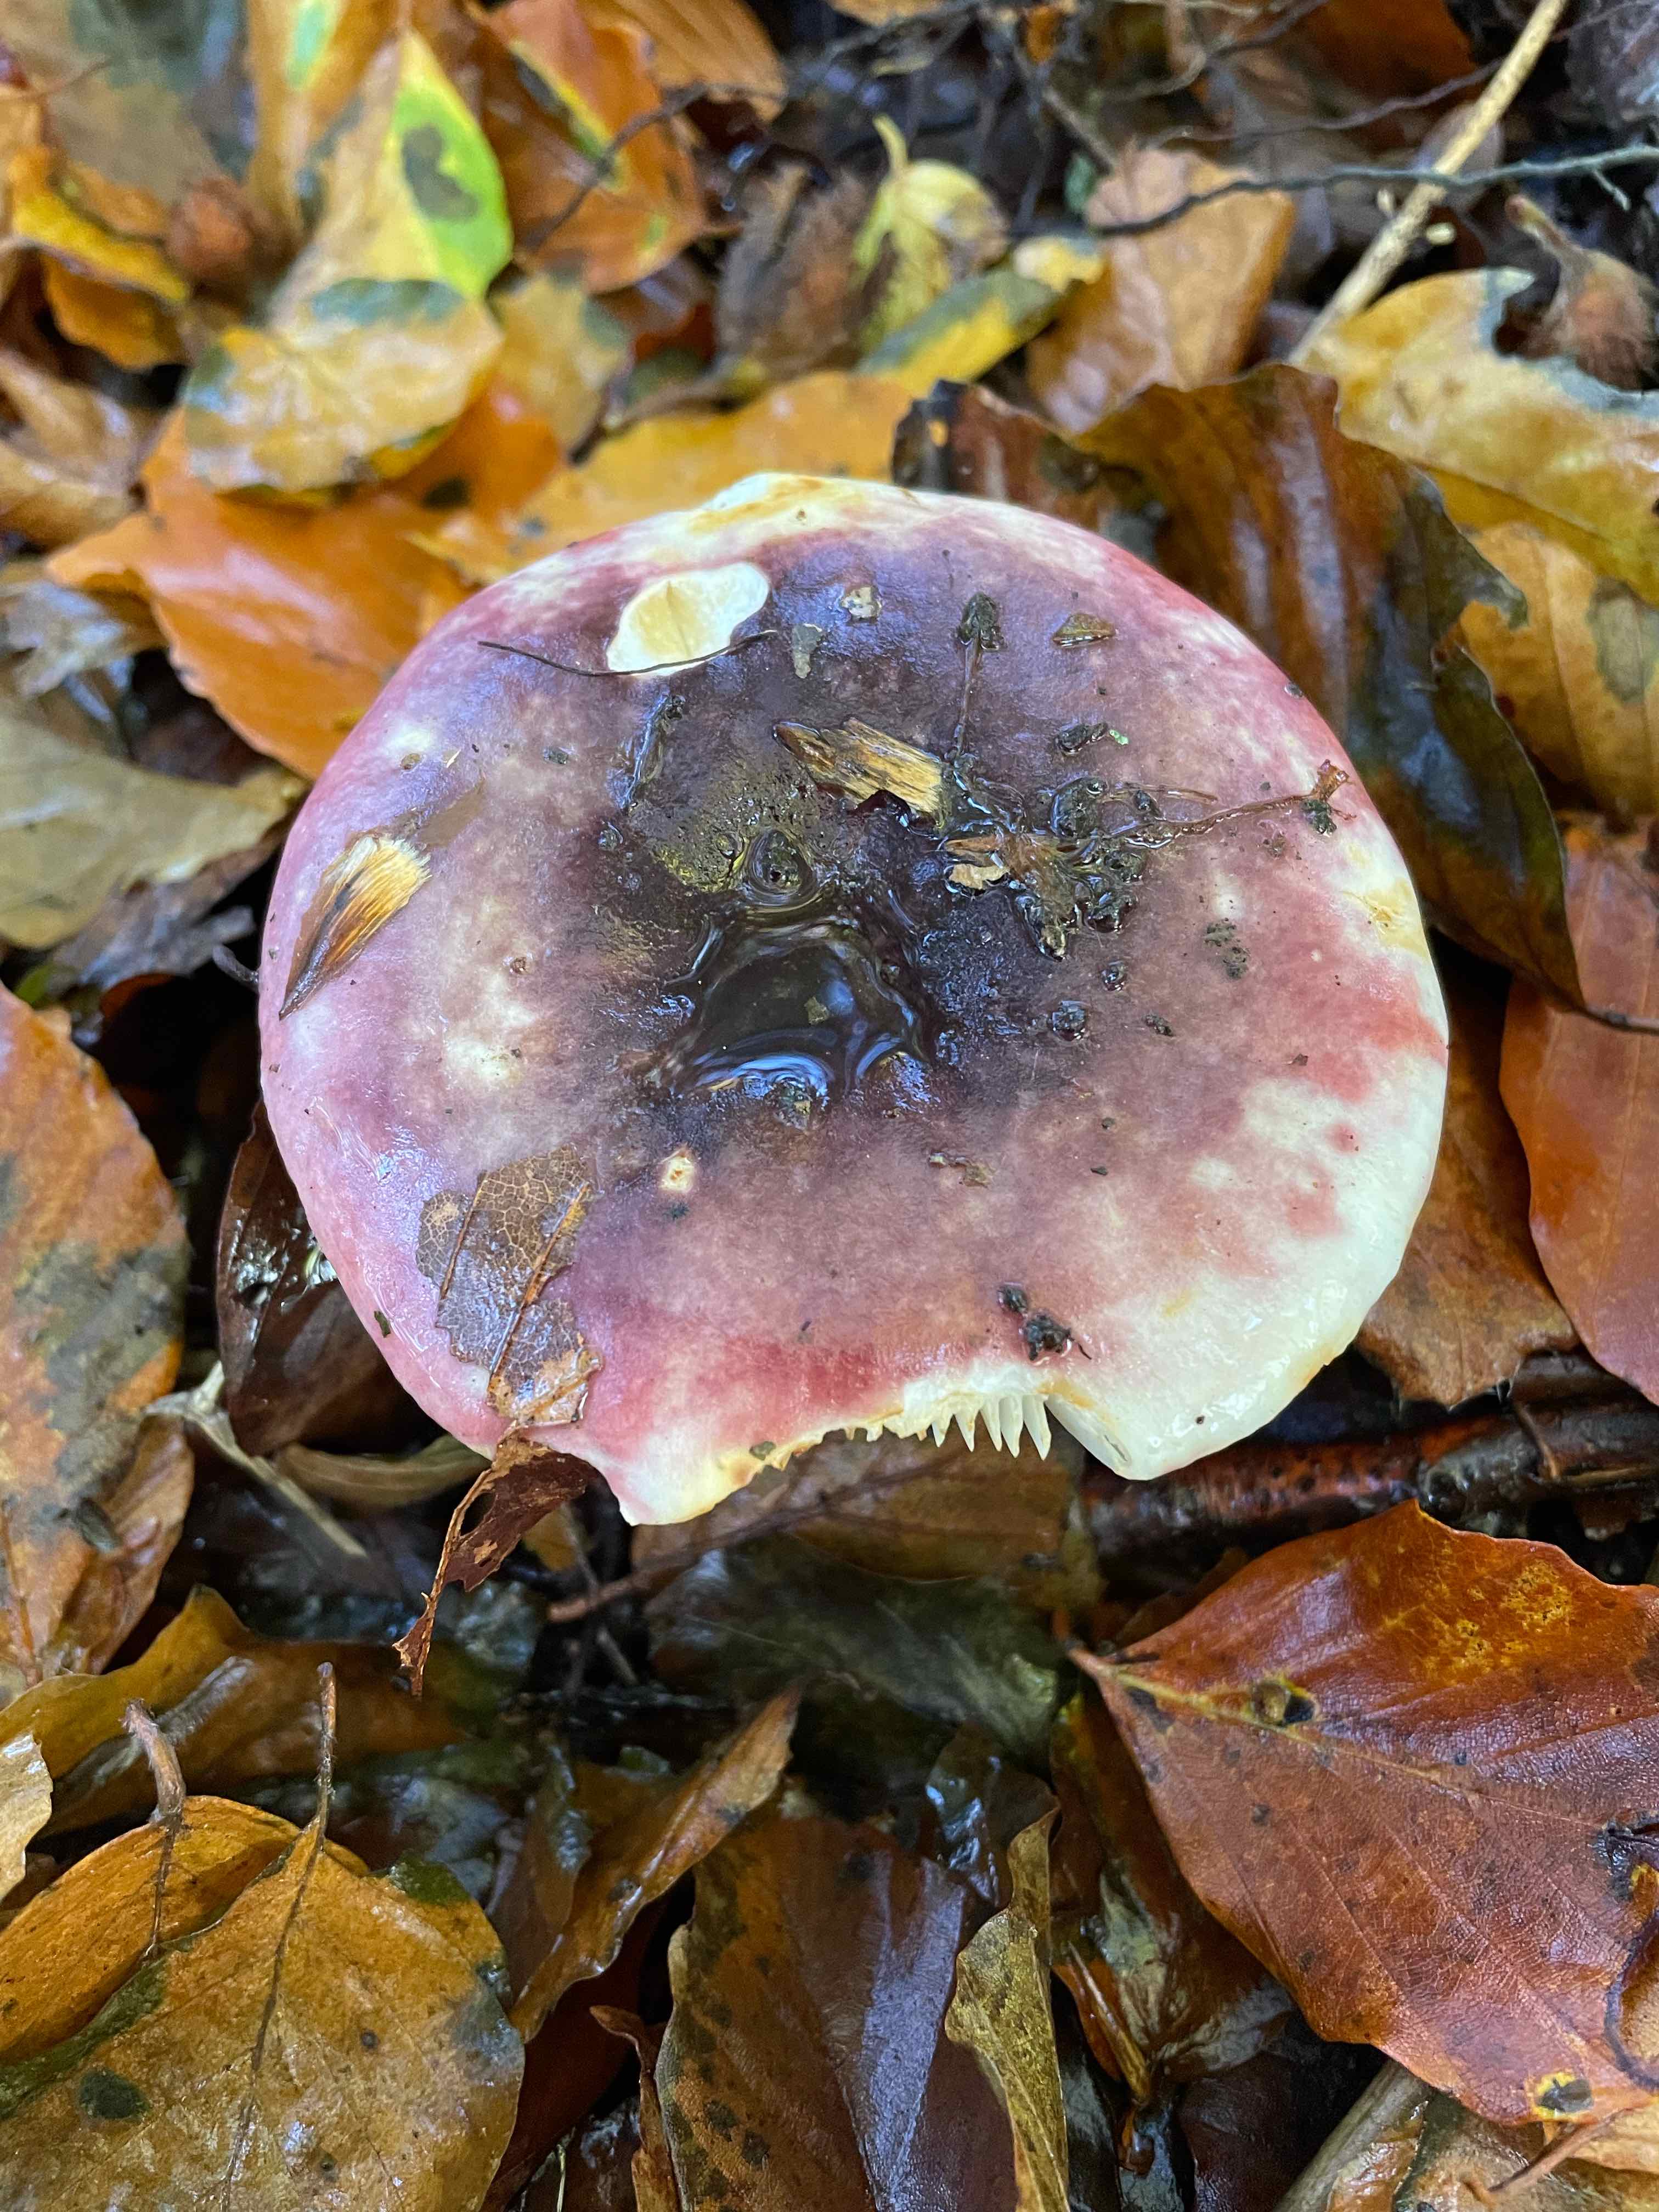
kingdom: Fungi
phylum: Basidiomycota
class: Agaricomycetes
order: Russulales
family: Russulaceae
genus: Russula
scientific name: Russula
